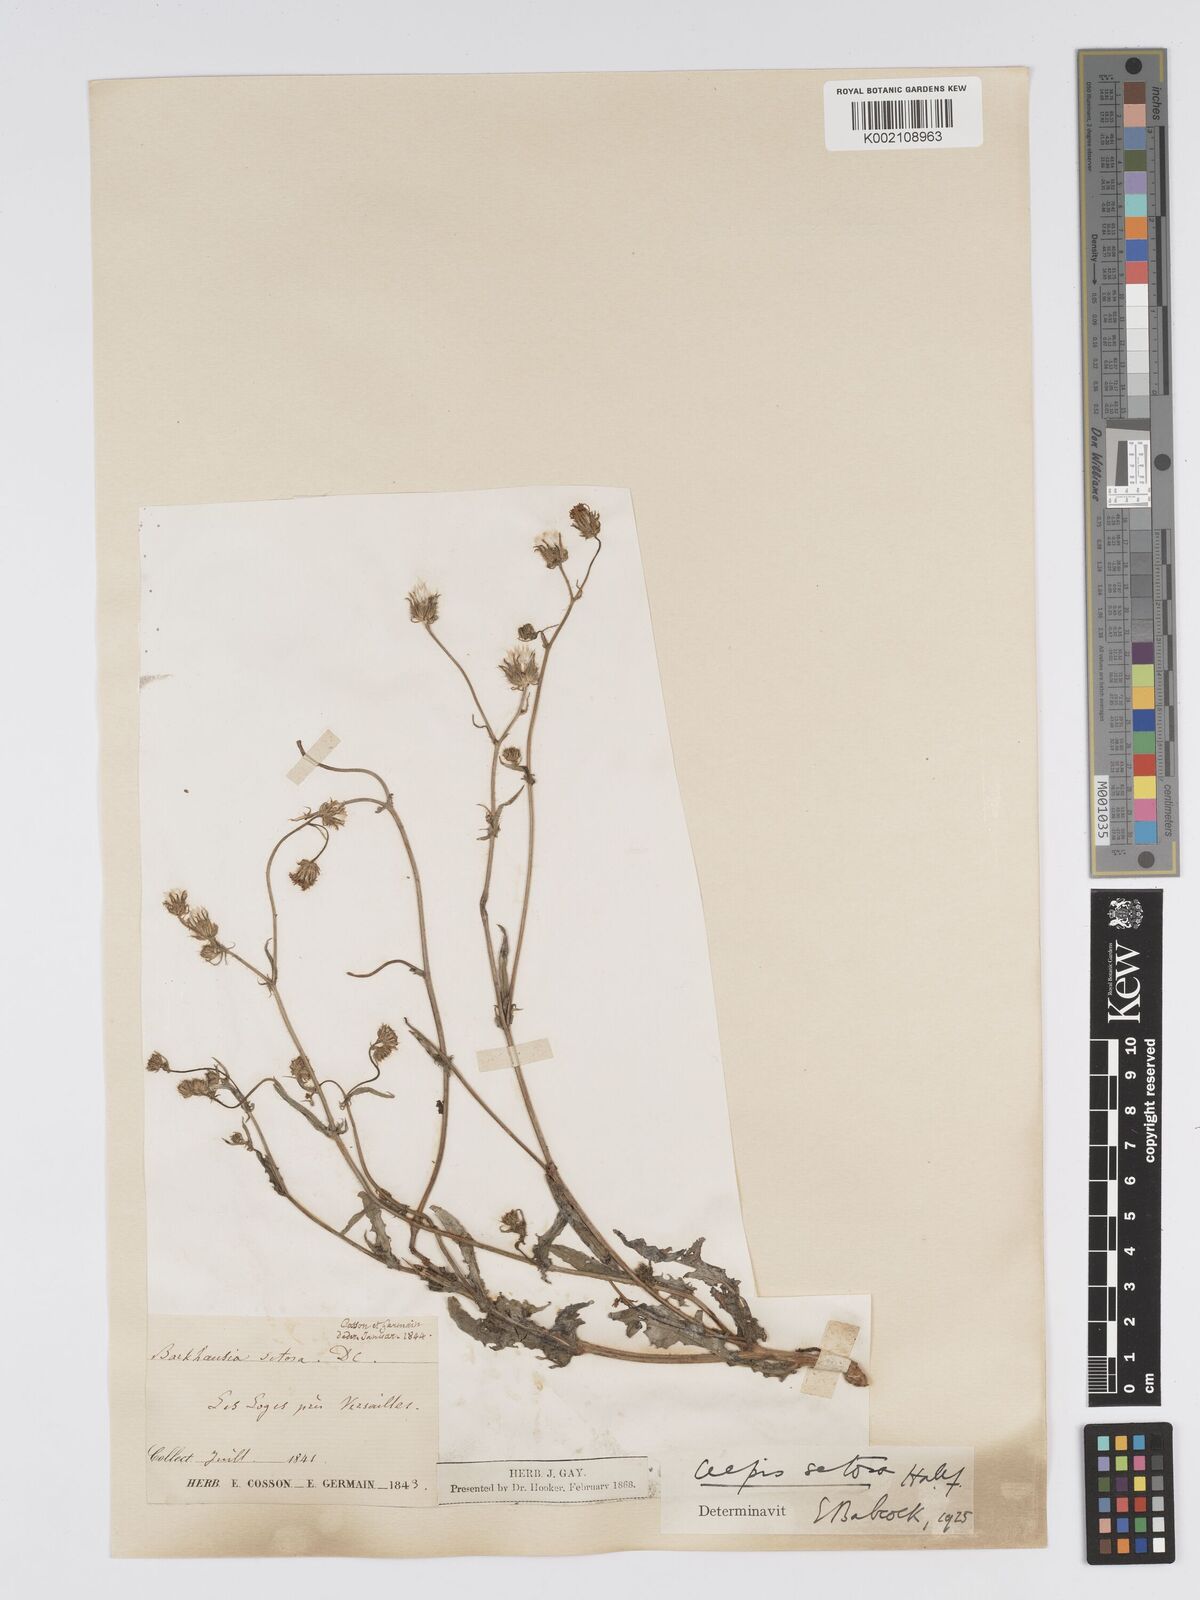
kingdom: Plantae
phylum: Tracheophyta
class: Magnoliopsida
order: Asterales
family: Asteraceae
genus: Crepis
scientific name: Crepis setosa
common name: Bristly hawk's-beard
